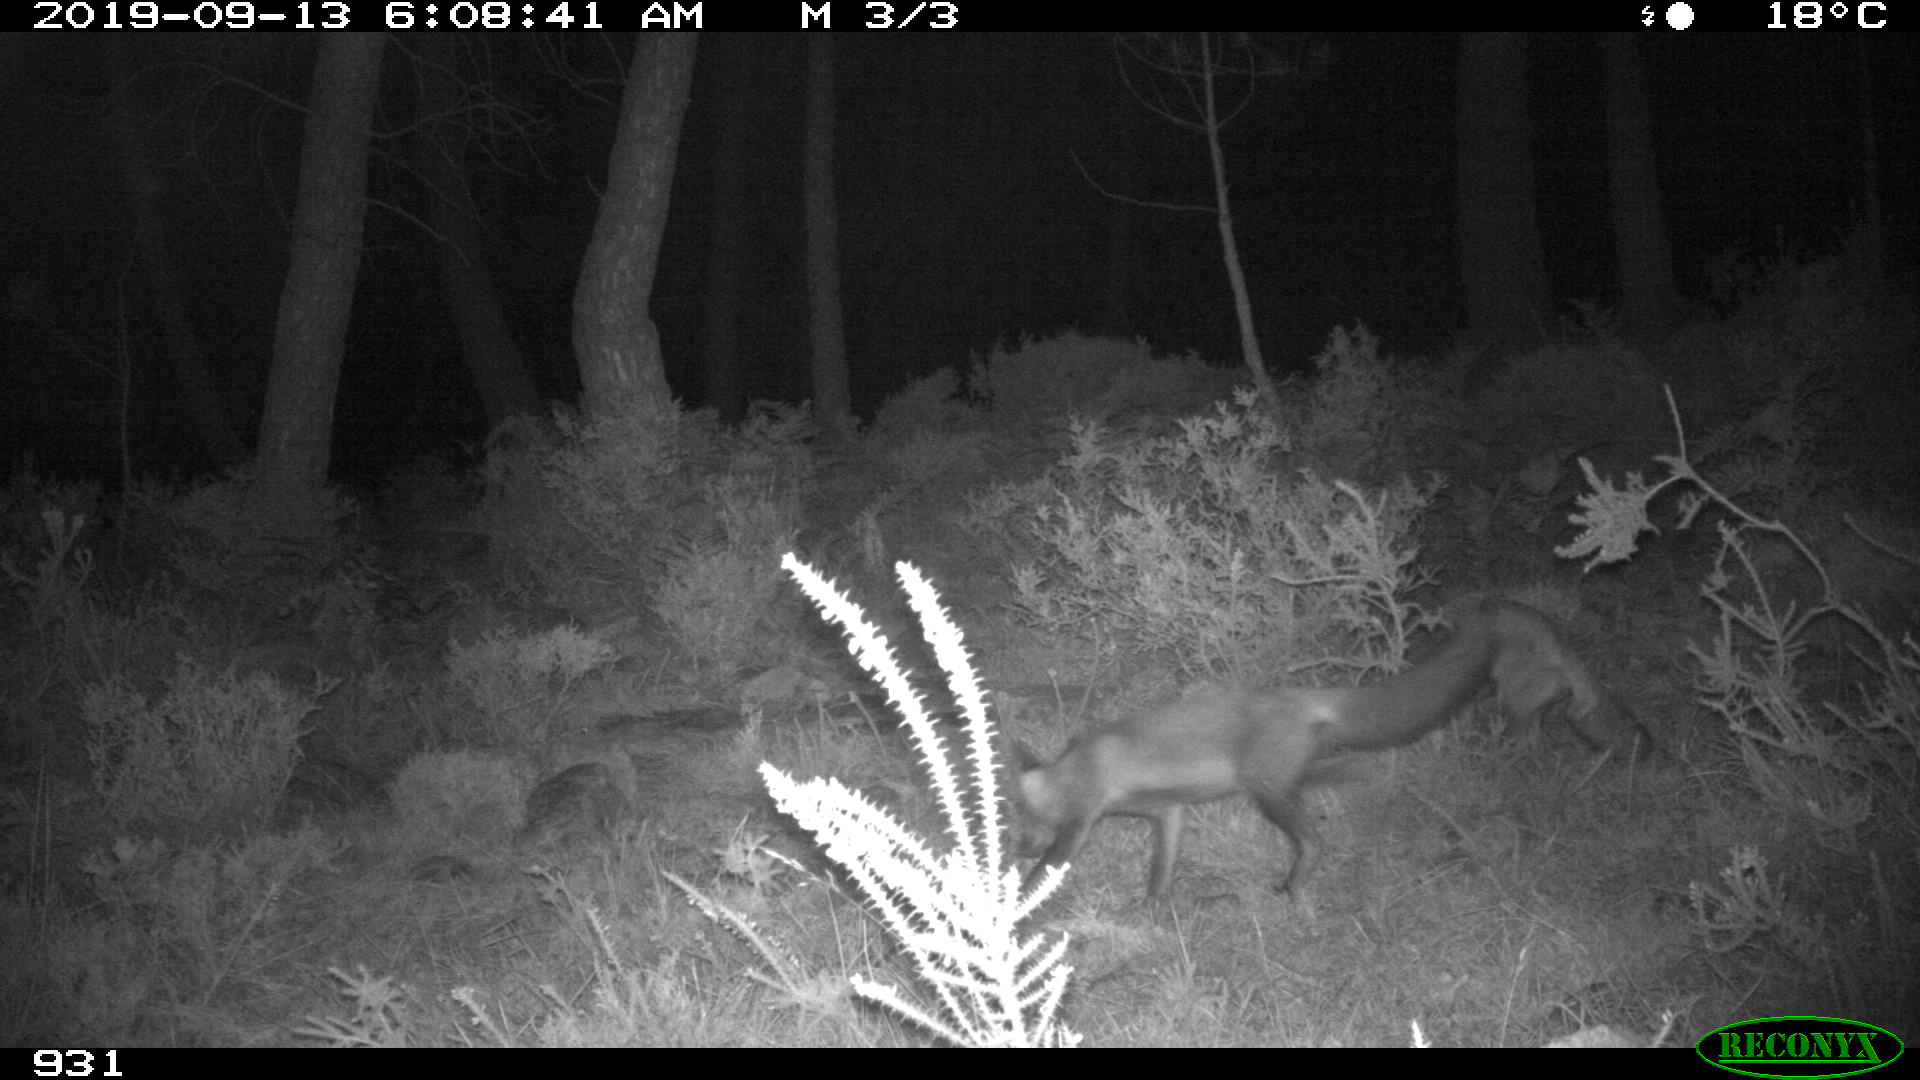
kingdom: Animalia
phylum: Chordata
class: Mammalia
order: Carnivora
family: Canidae
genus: Vulpes
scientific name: Vulpes vulpes
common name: Red fox
